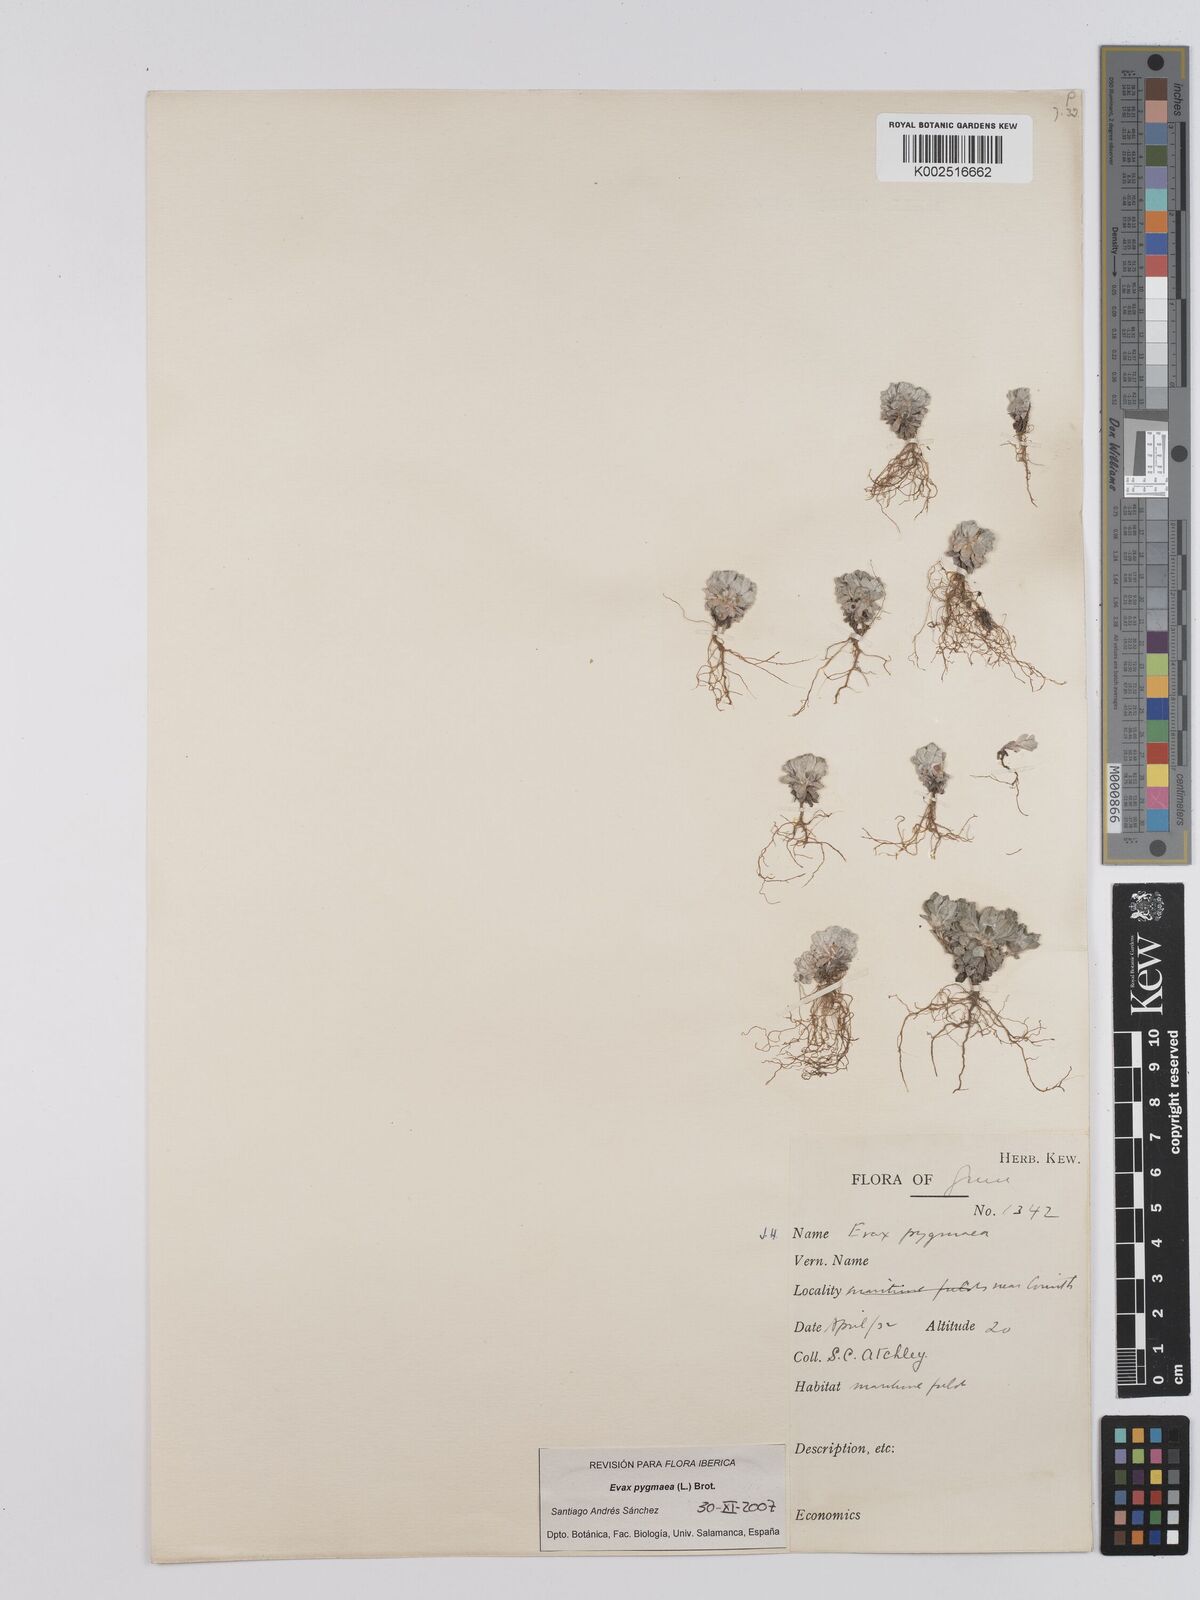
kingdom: Plantae
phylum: Tracheophyta
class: Magnoliopsida
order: Asterales
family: Asteraceae
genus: Filago
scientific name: Filago pygmaea
